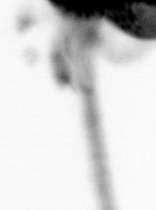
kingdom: Animalia
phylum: Arthropoda
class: Copepoda
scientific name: Copepoda
